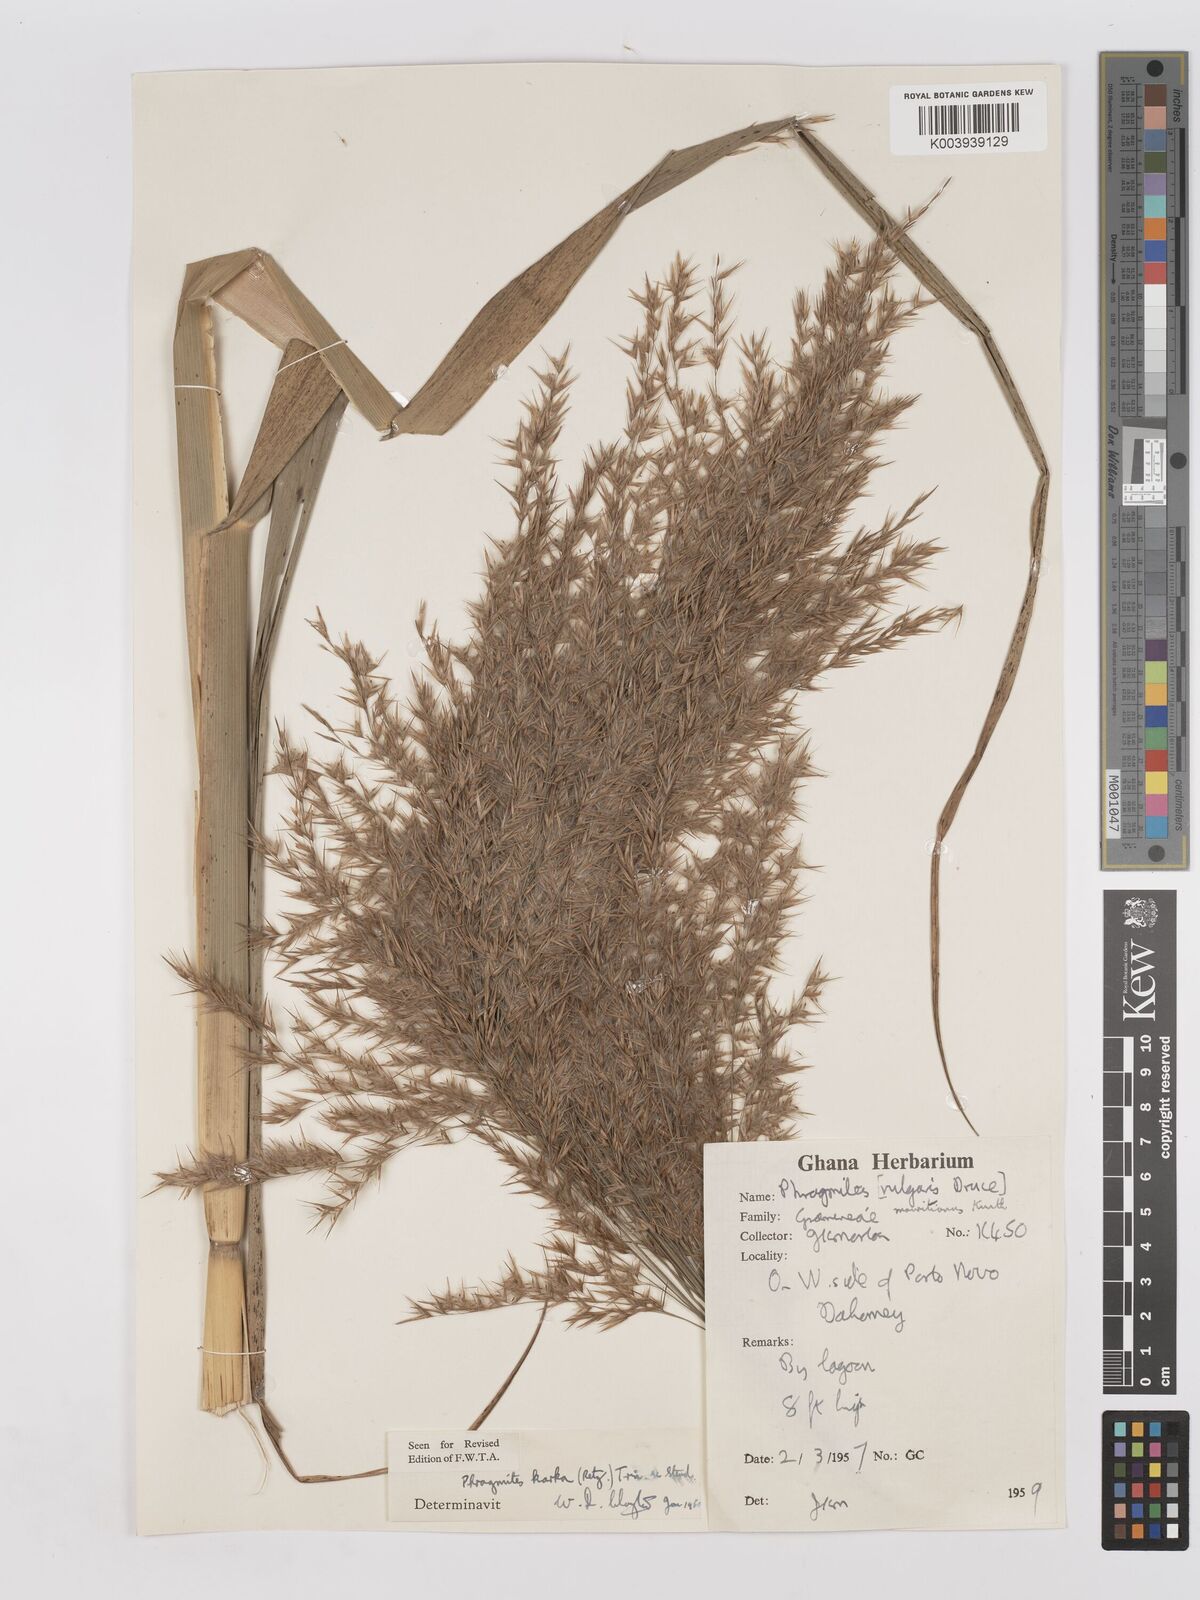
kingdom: Plantae
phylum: Tracheophyta
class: Liliopsida
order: Poales
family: Poaceae
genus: Phragmites
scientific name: Phragmites karka
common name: Tropical reed
